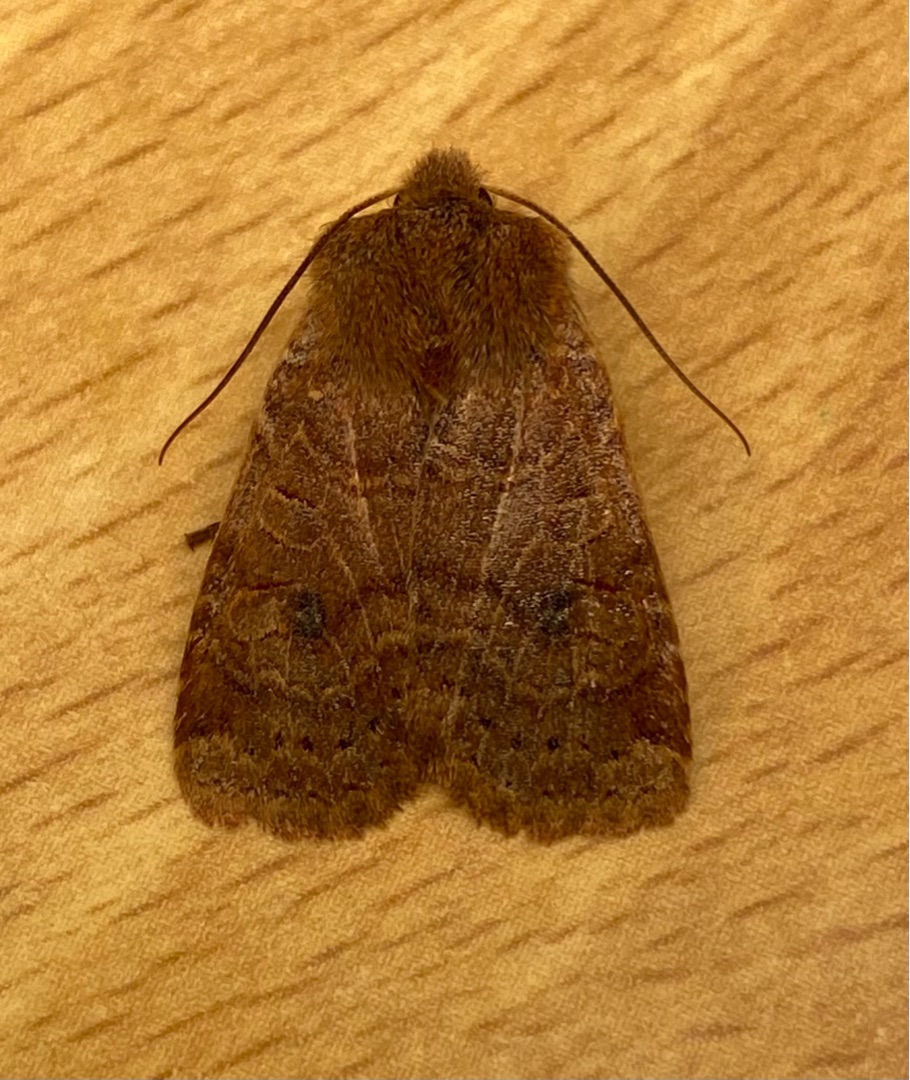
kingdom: Animalia
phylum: Arthropoda
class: Insecta
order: Lepidoptera
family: Noctuidae
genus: Conistra
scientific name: Conistra vaccinii
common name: Blåbærugle
